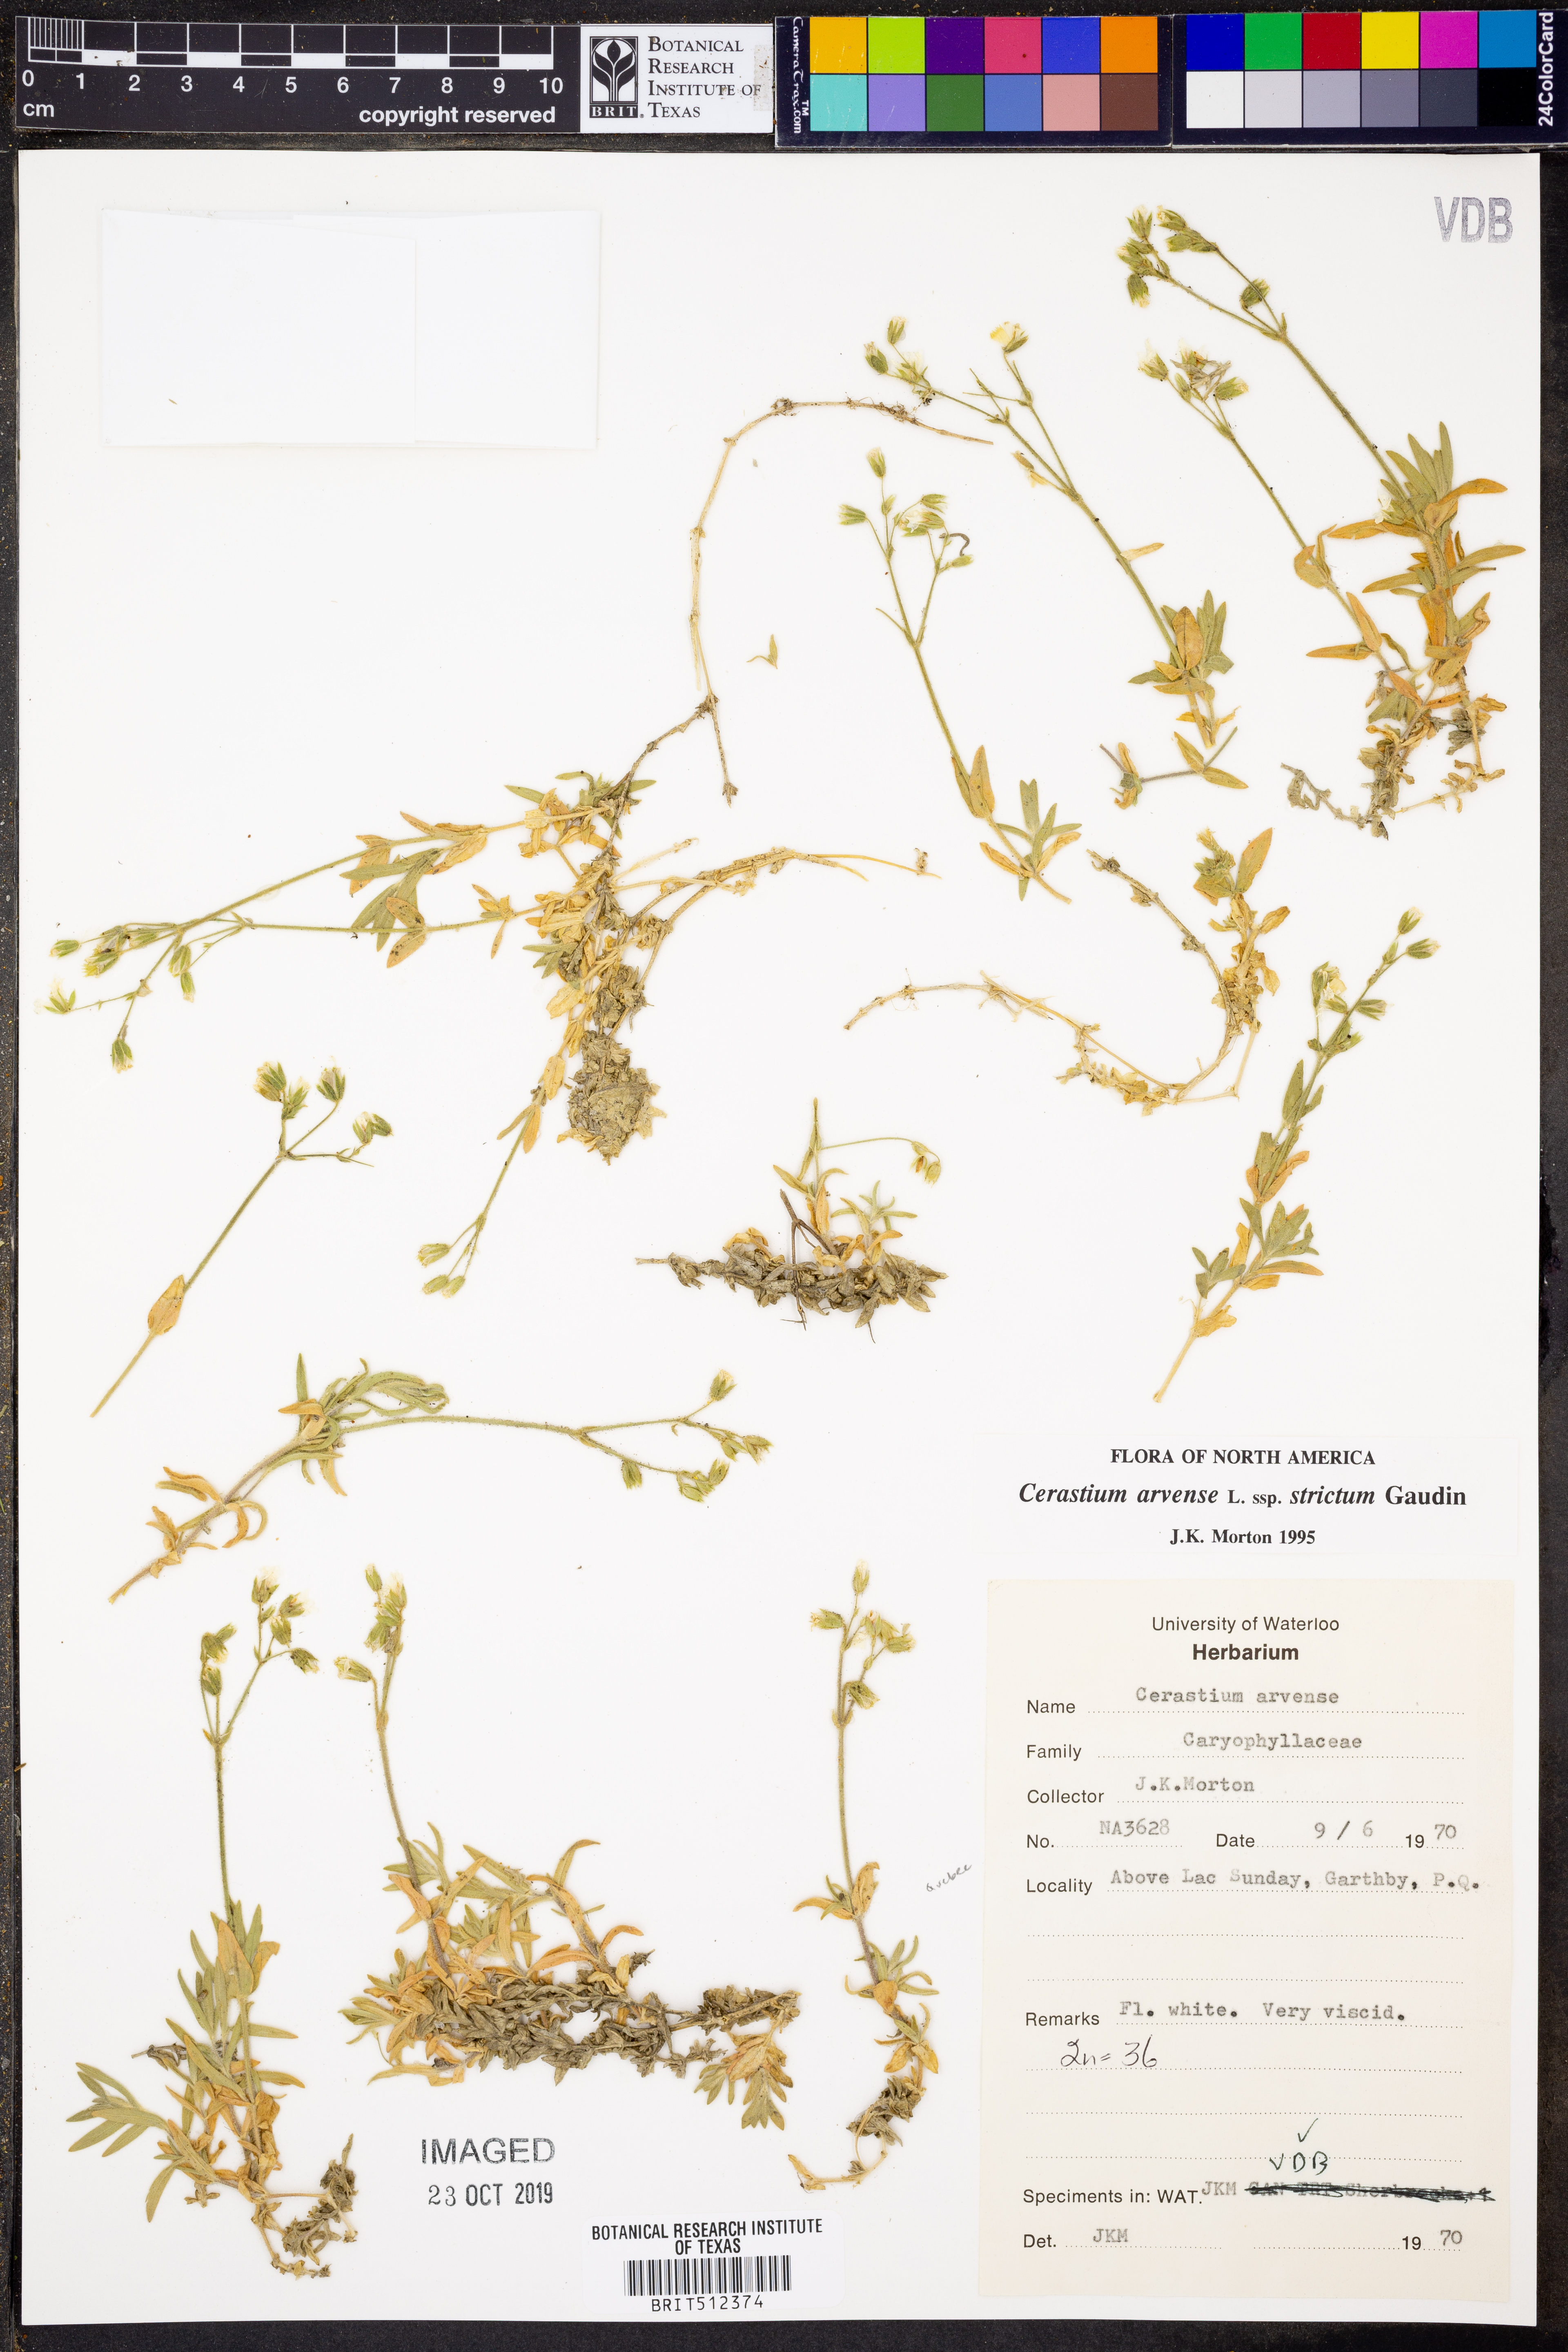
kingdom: Plantae
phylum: Tracheophyta
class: Magnoliopsida
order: Caryophyllales
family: Caryophyllaceae
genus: Cerastium
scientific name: Cerastium elongatum
